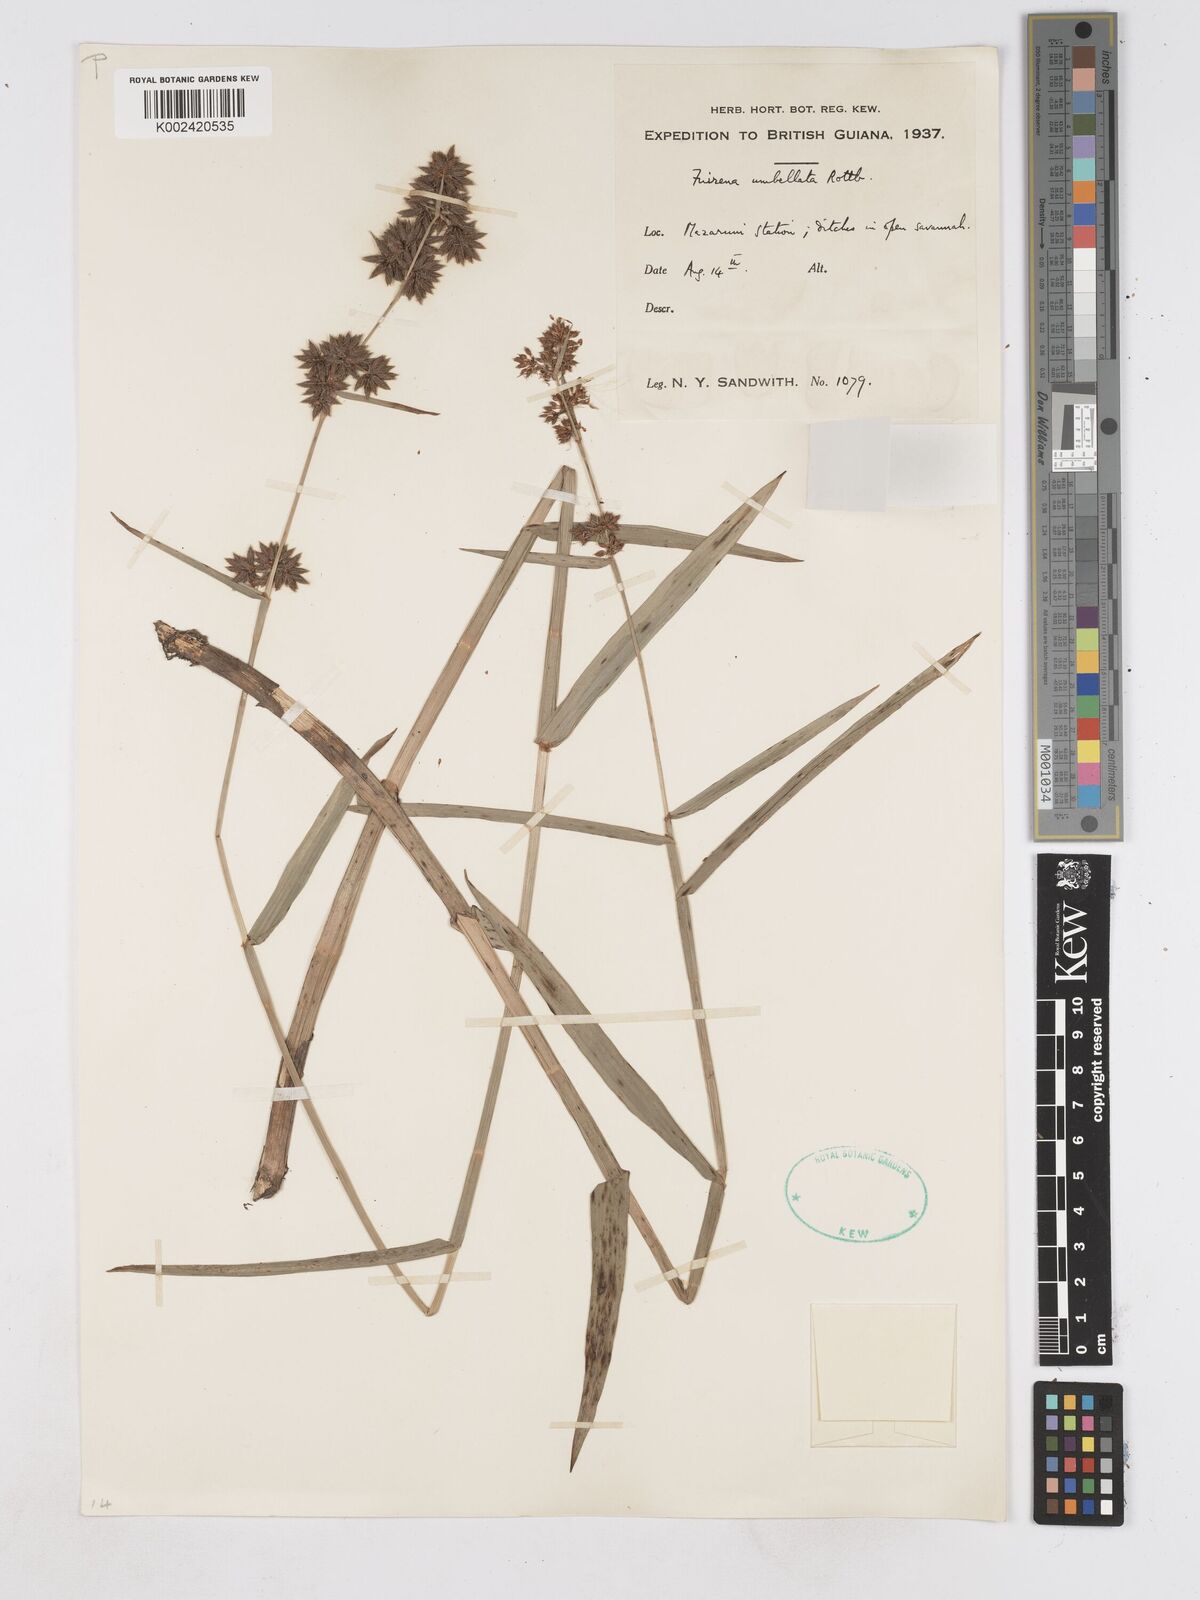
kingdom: Plantae
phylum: Tracheophyta
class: Liliopsida
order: Poales
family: Cyperaceae
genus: Fuirena
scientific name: Fuirena umbellata
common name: Yefen
